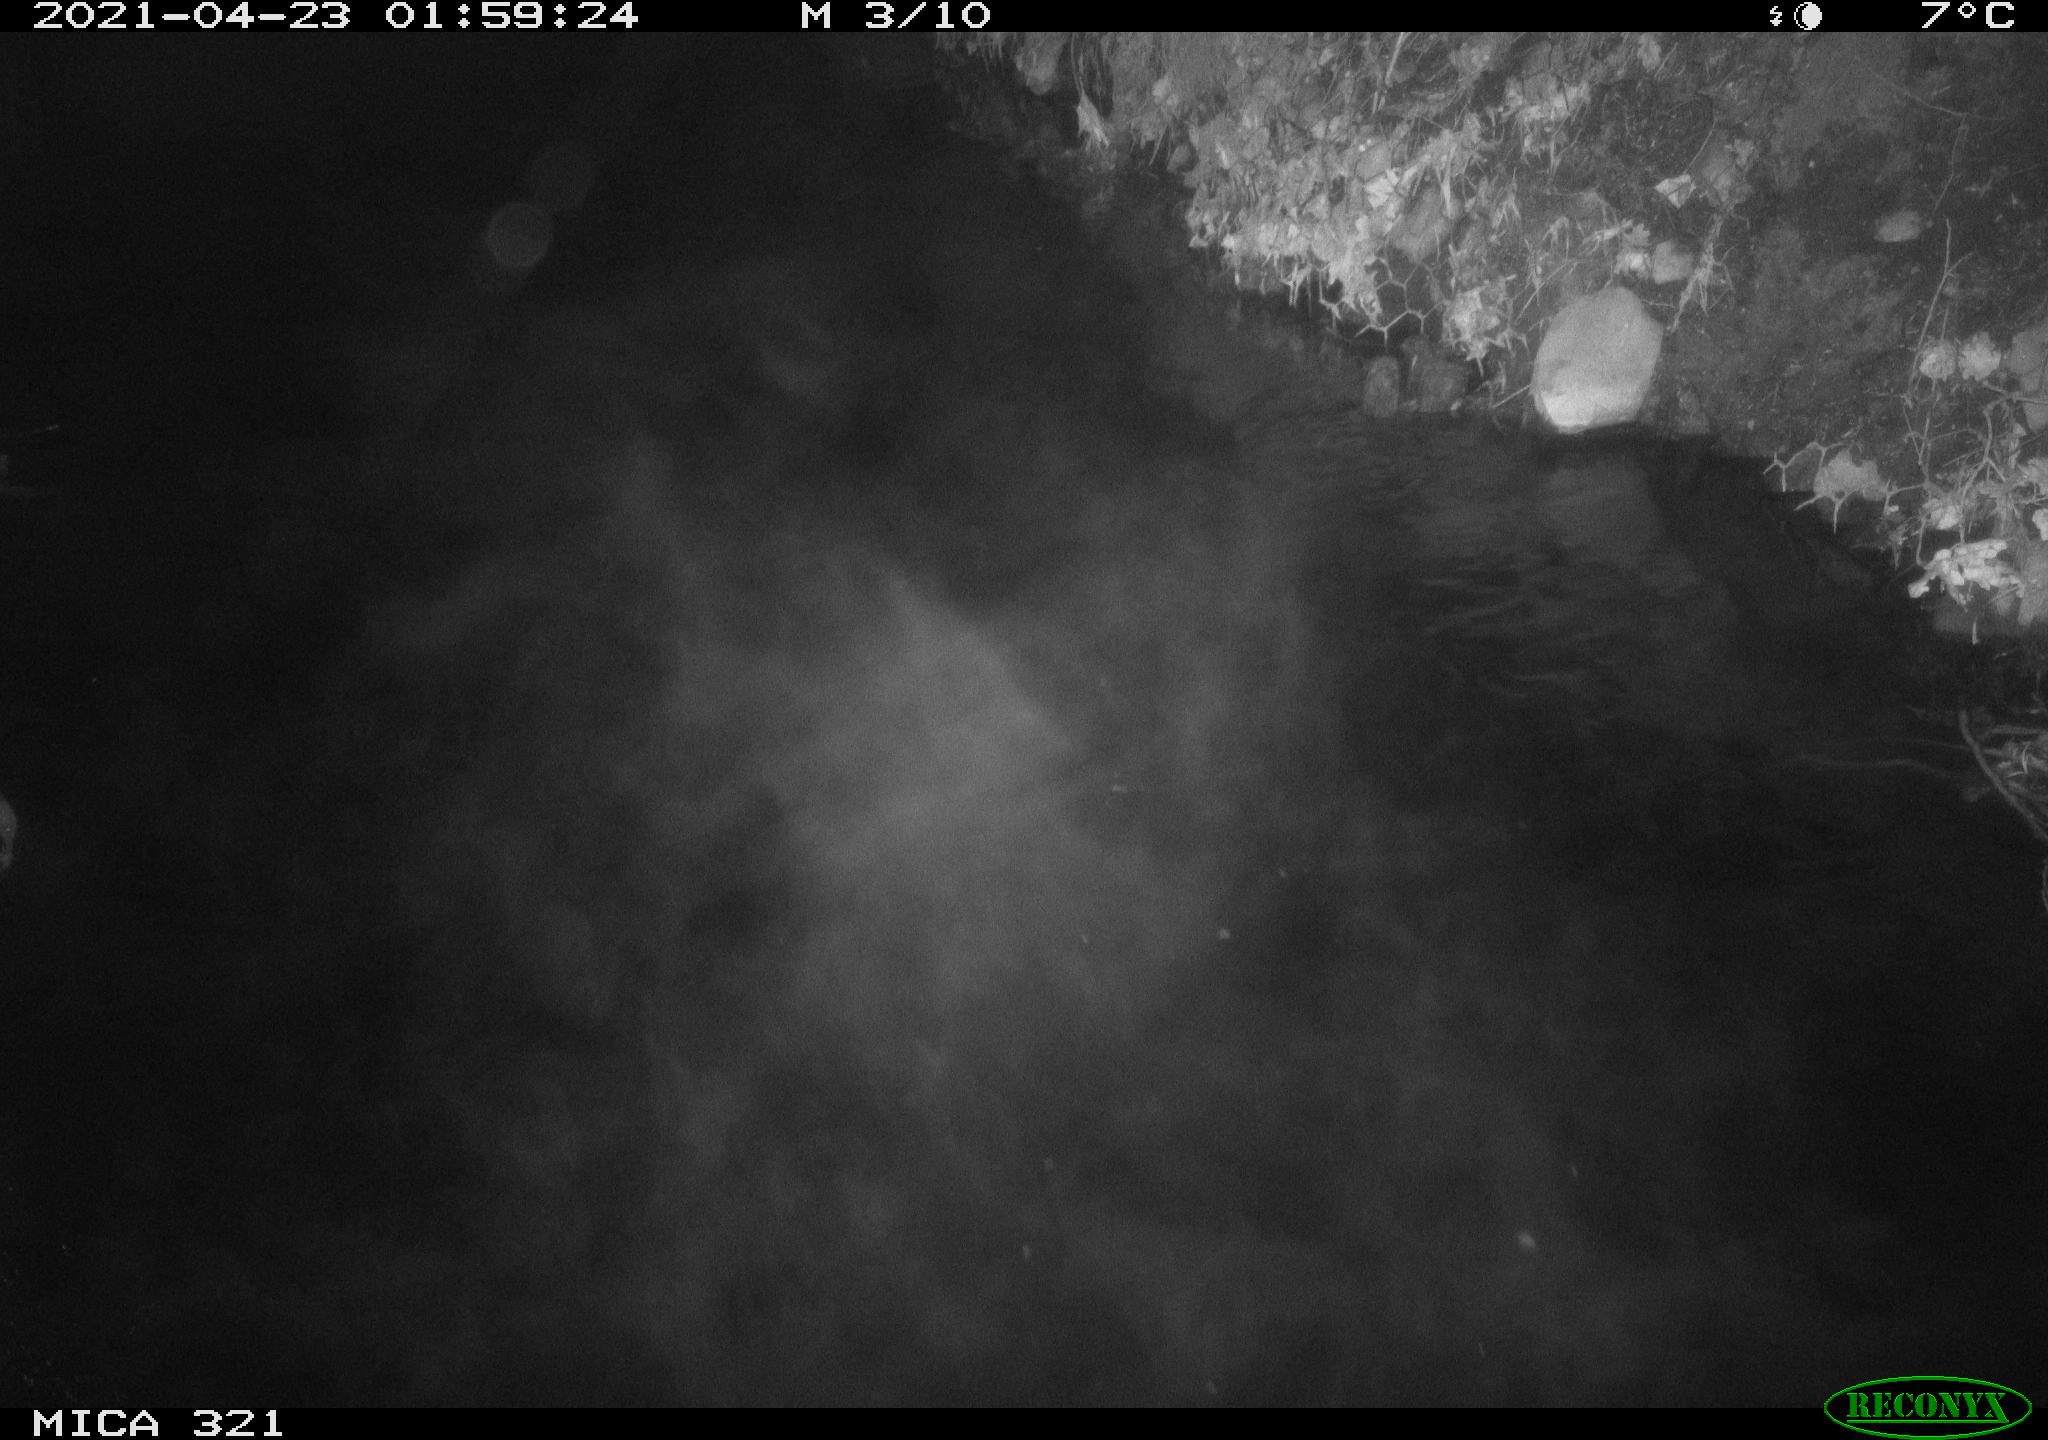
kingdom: Animalia
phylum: Chordata
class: Aves
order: Anseriformes
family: Anatidae
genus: Anas
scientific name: Anas
